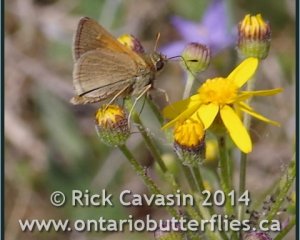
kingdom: Animalia
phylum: Arthropoda
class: Insecta
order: Lepidoptera
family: Hesperiidae
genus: Polites
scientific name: Polites themistocles
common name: Tawny-edged Skipper
